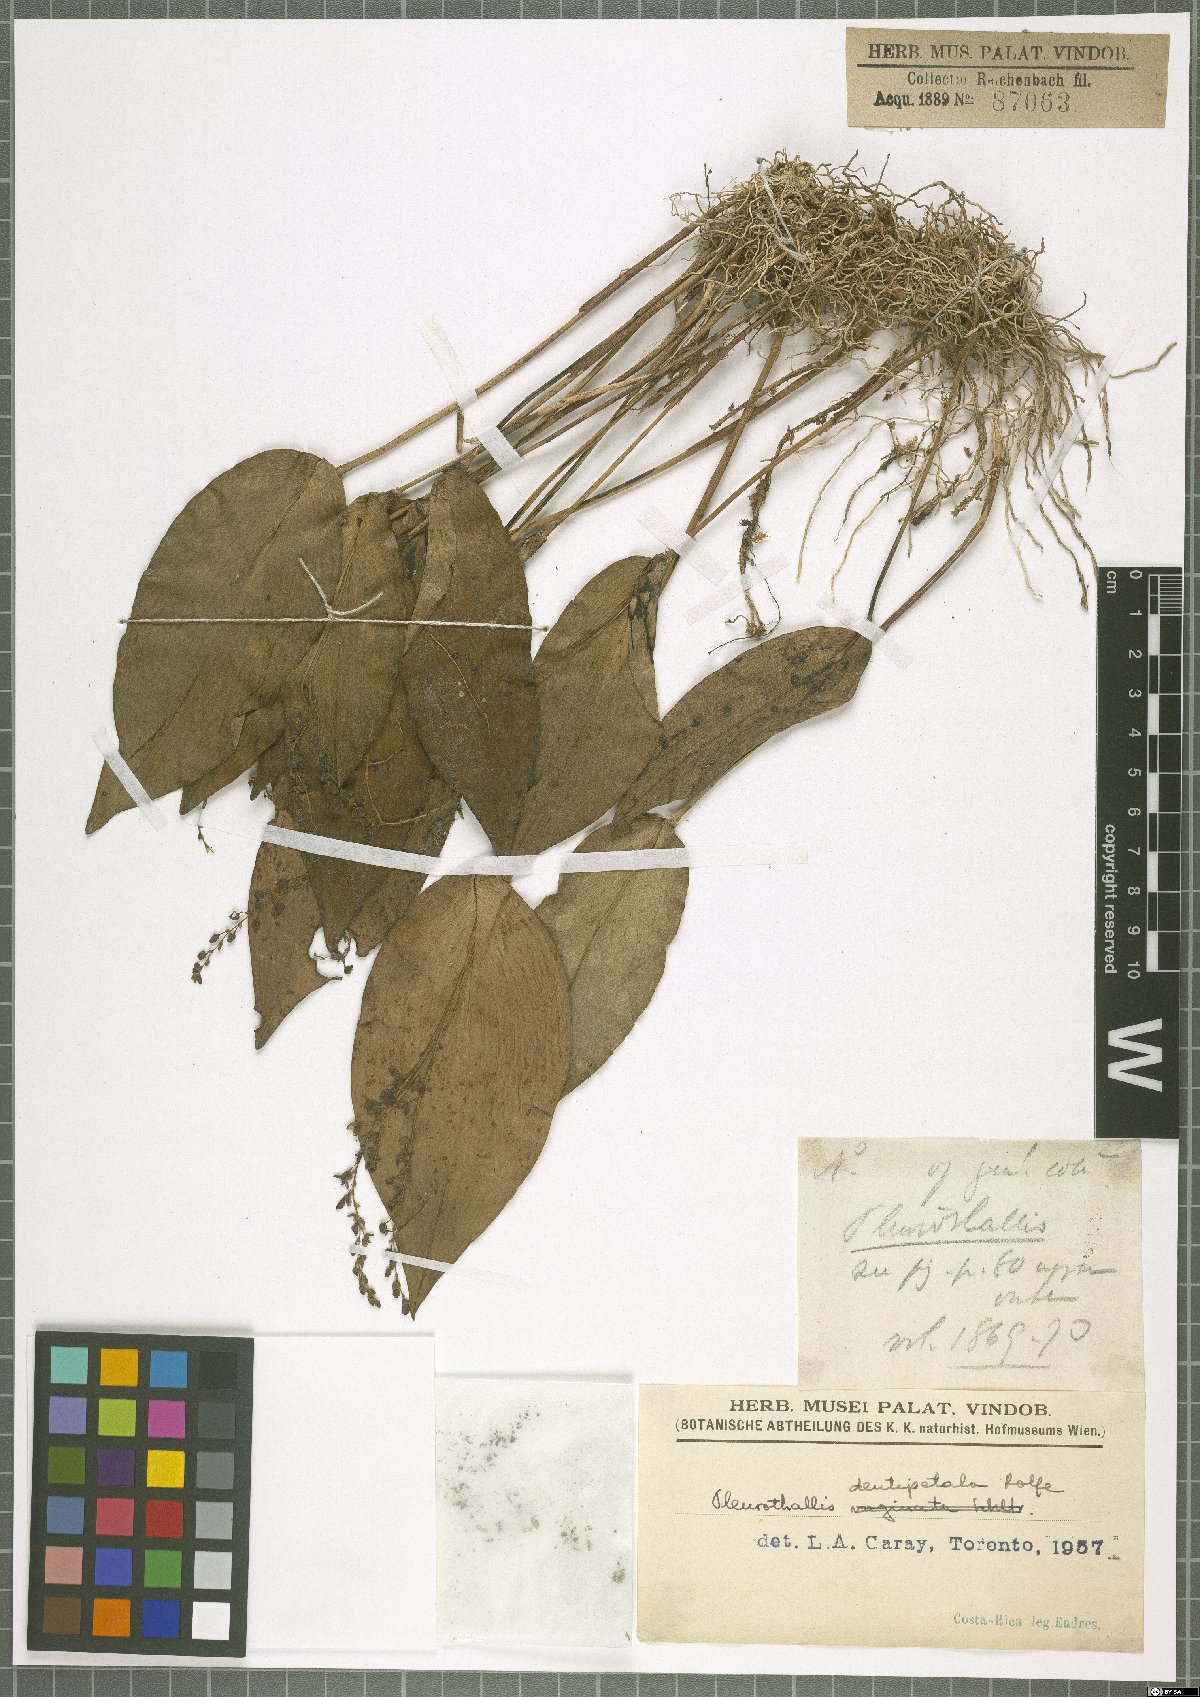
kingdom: Plantae
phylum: Tracheophyta
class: Liliopsida
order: Asparagales
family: Orchidaceae
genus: Pleurothallis
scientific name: Pleurothallis dentipetala
